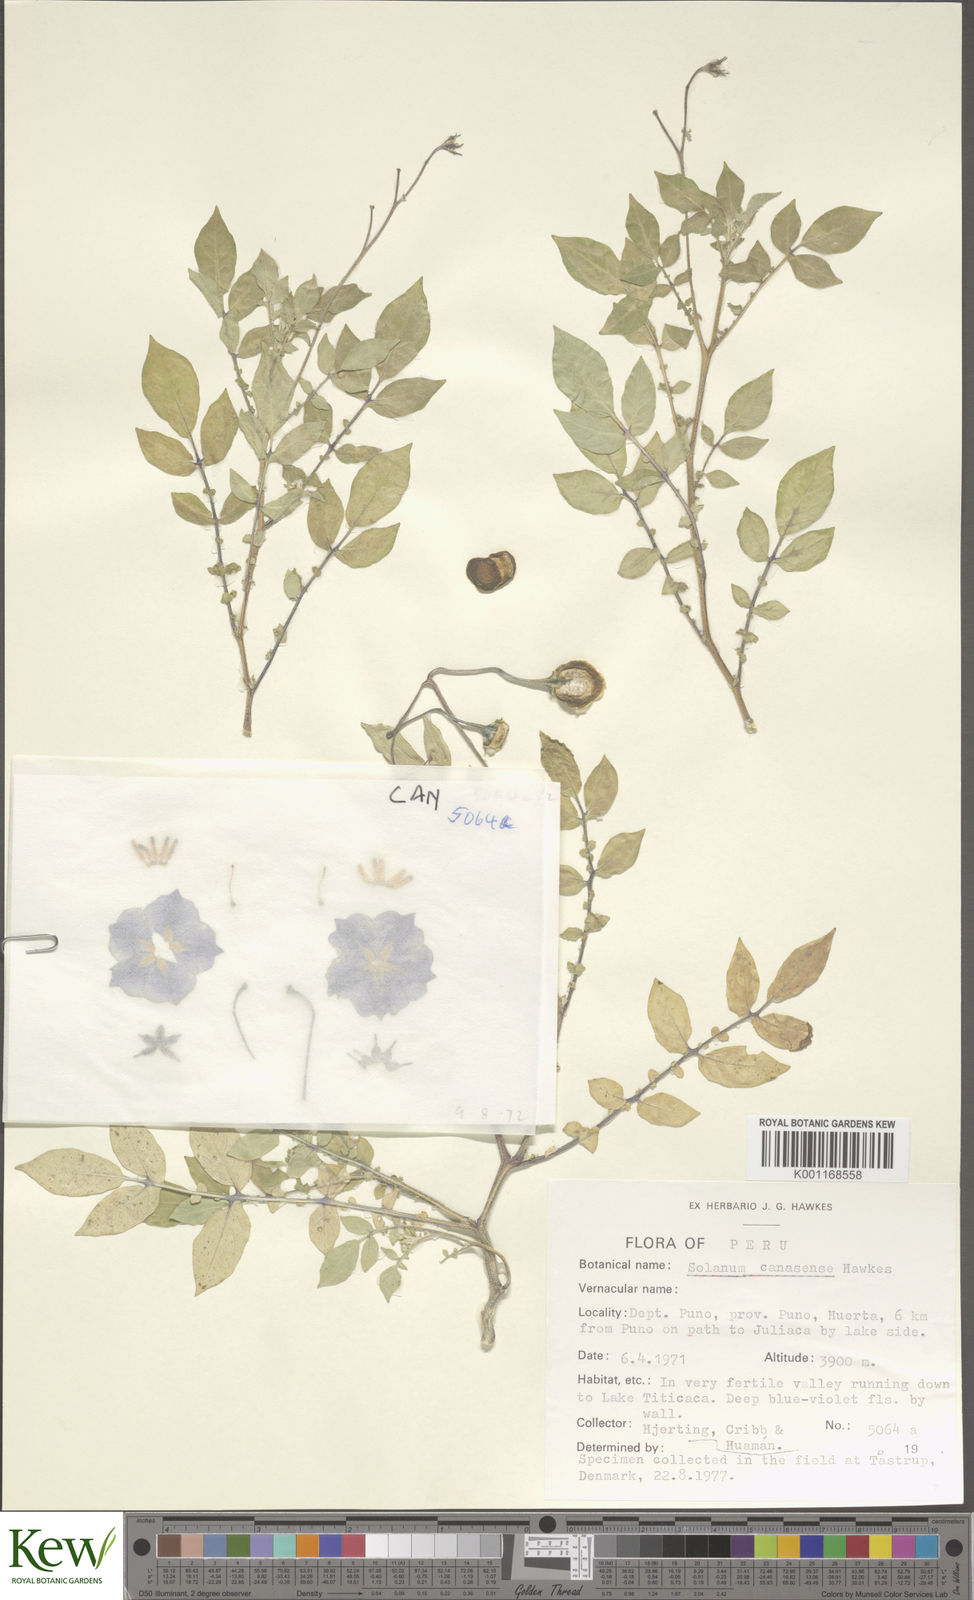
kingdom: Plantae
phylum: Tracheophyta
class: Magnoliopsida
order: Solanales
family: Solanaceae
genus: Solanum
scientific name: Solanum candolleanum
